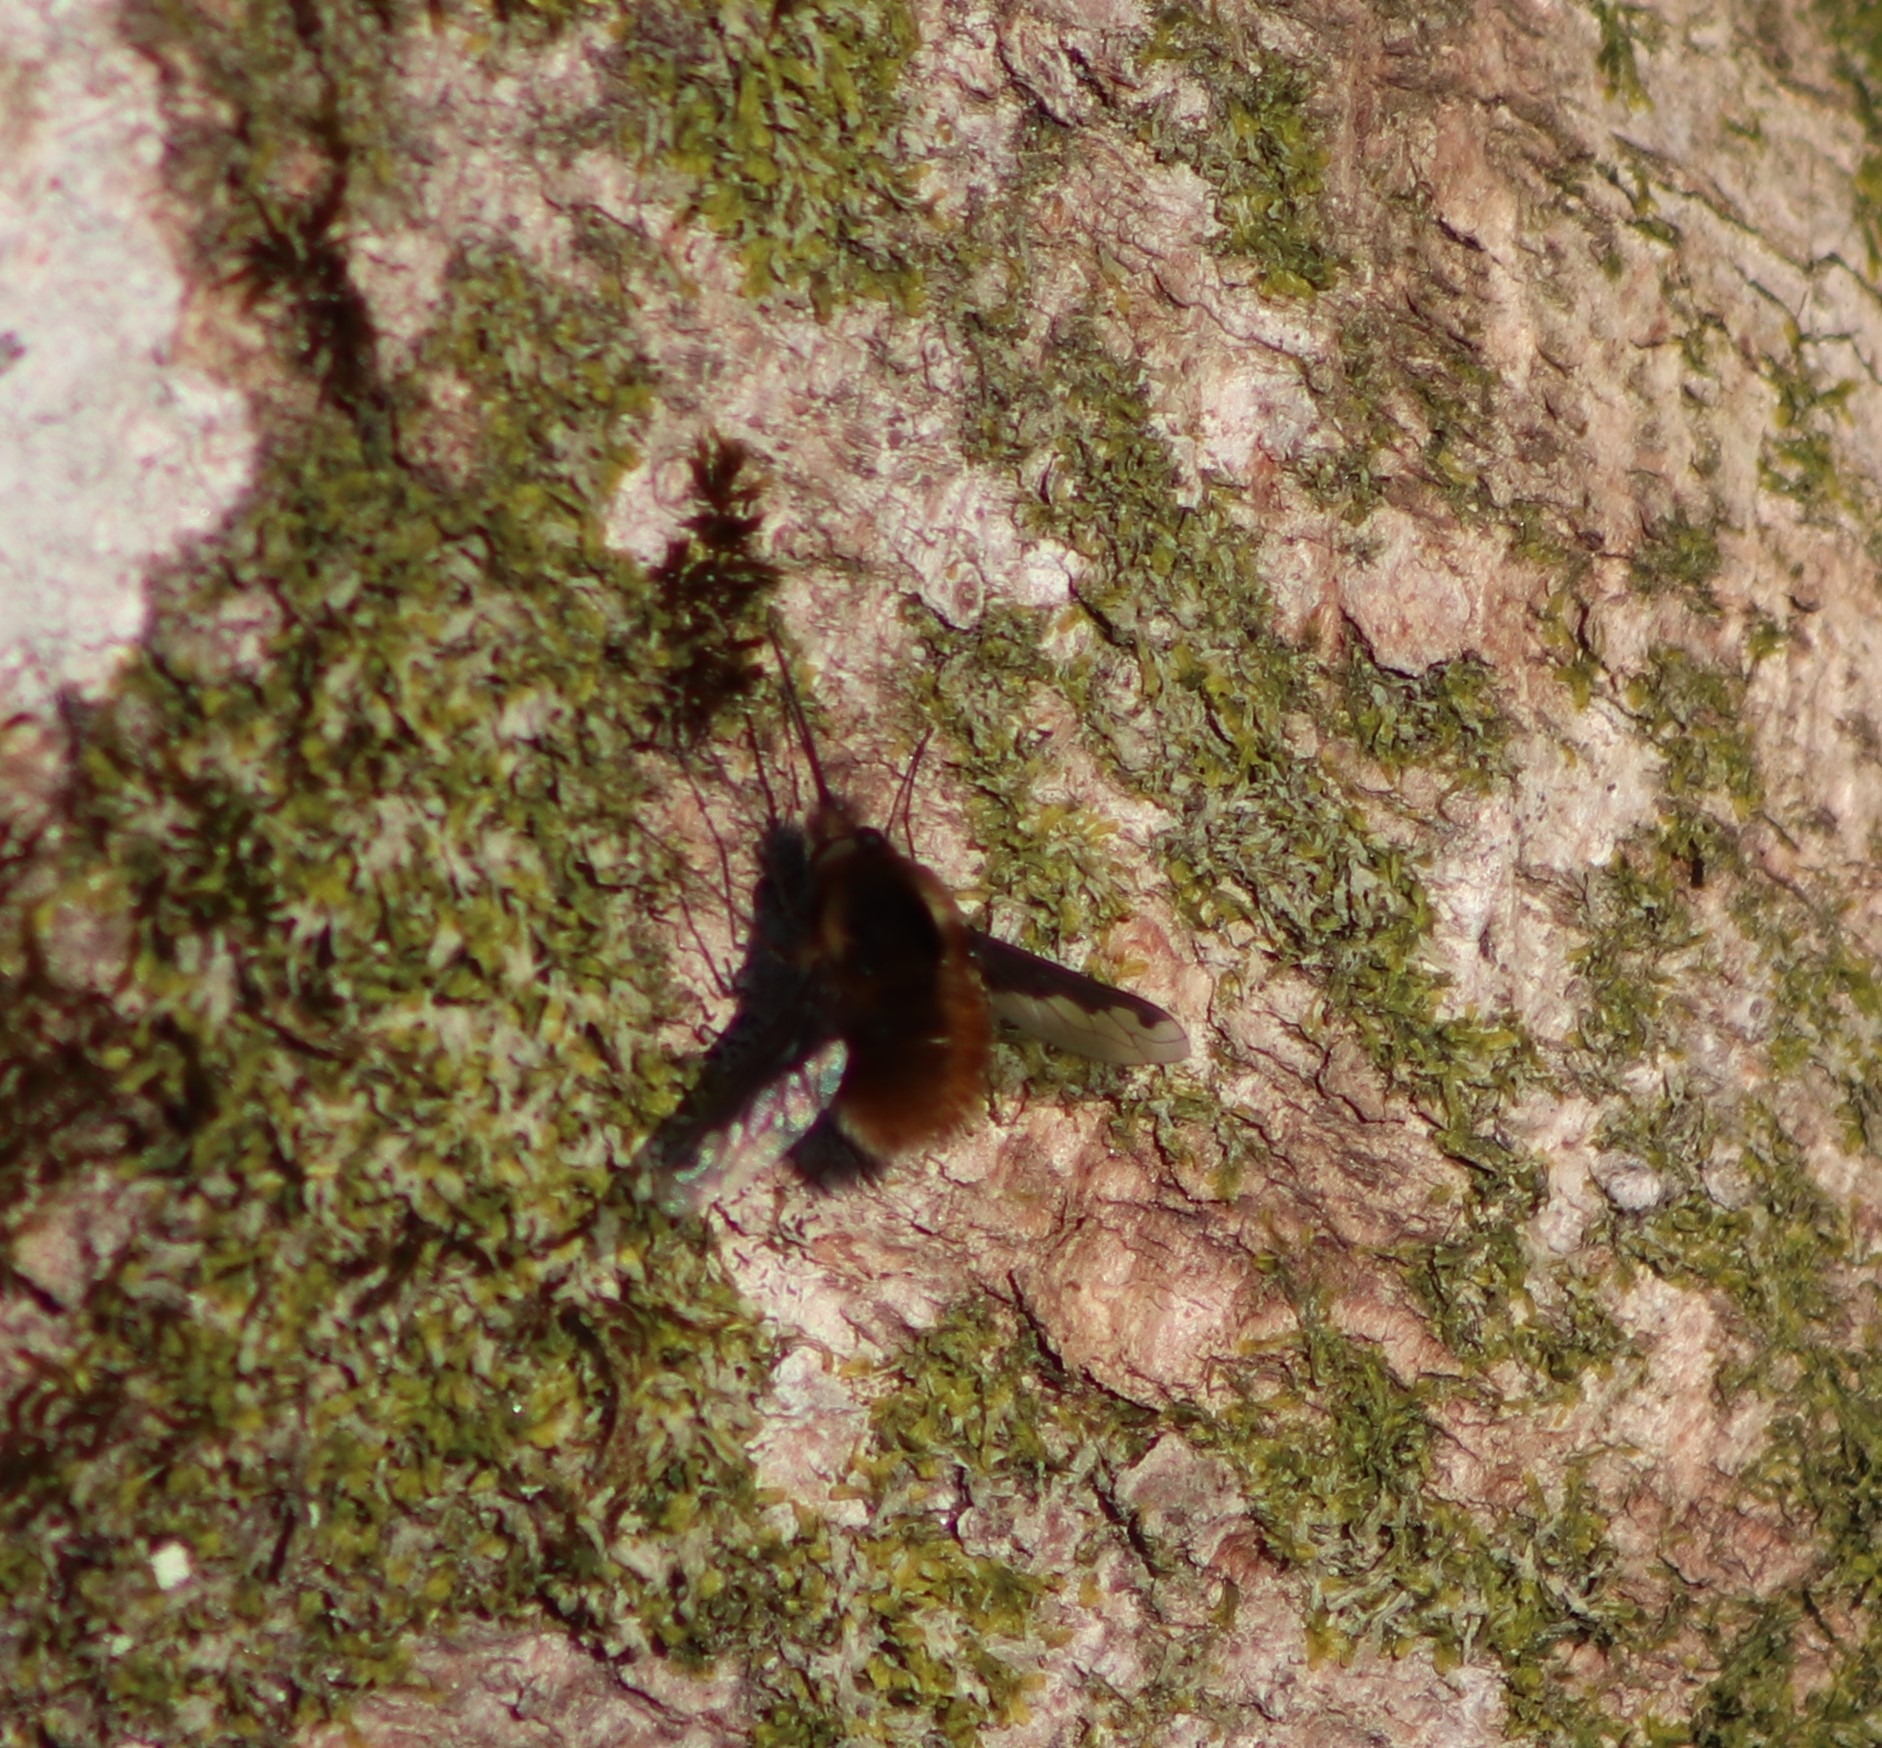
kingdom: Animalia
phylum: Arthropoda
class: Insecta
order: Diptera
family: Bombyliidae
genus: Bombylius
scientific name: Bombylius major
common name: Stor humleflue
